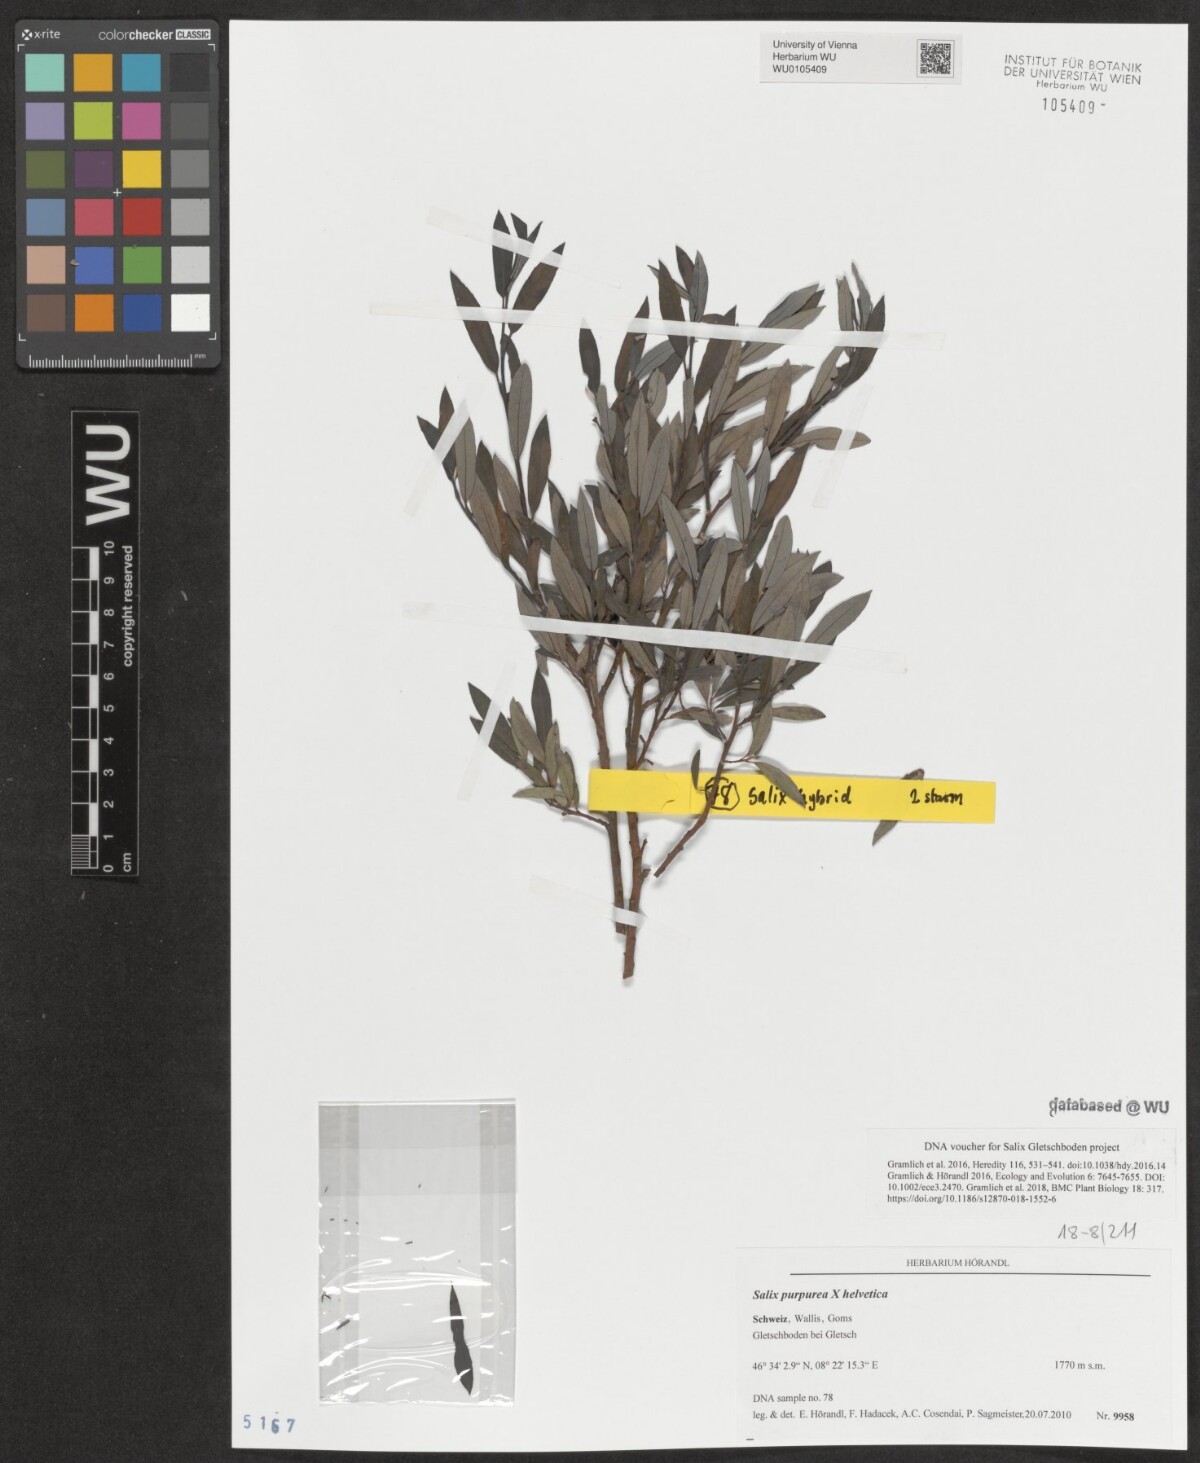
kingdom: Plantae
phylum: Tracheophyta
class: Magnoliopsida
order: Malpighiales
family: Salicaceae
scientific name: Salicaceae
